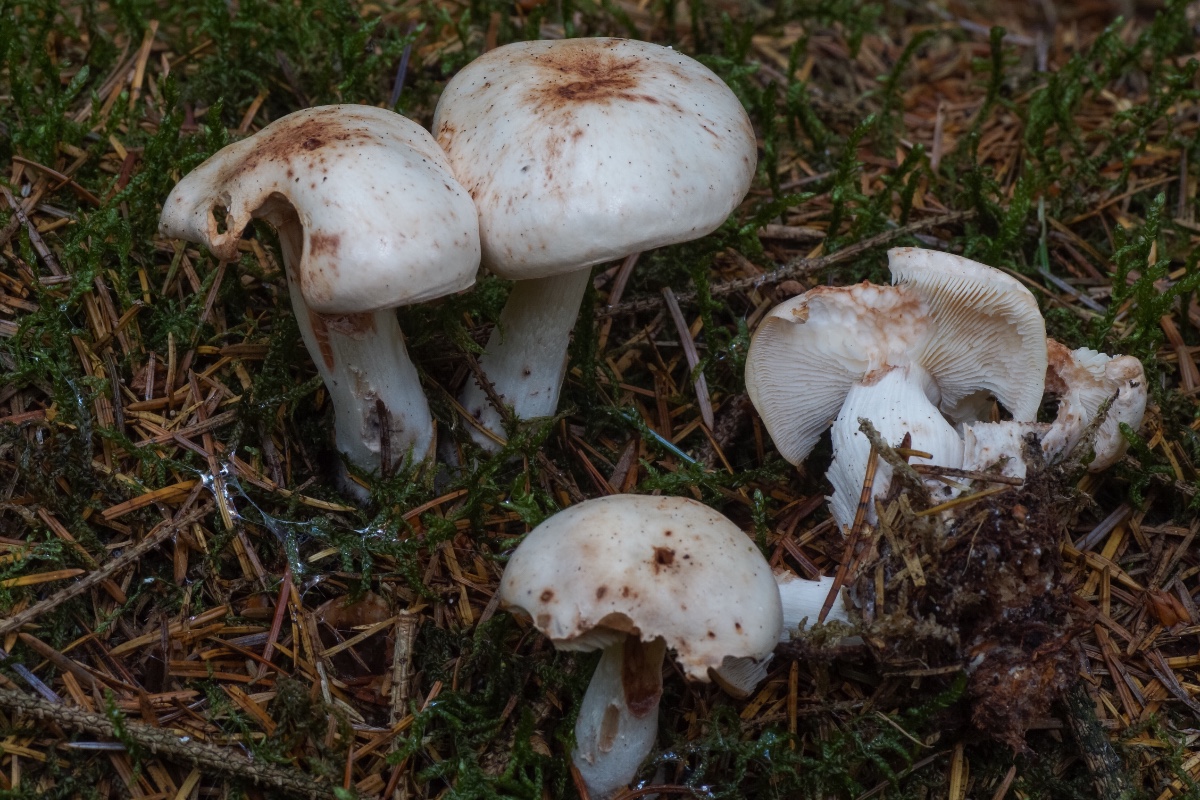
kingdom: Fungi
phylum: Basidiomycota
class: Agaricomycetes
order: Agaricales
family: Omphalotaceae
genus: Rhodocollybia
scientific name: Rhodocollybia maculata
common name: plettet fladhat
